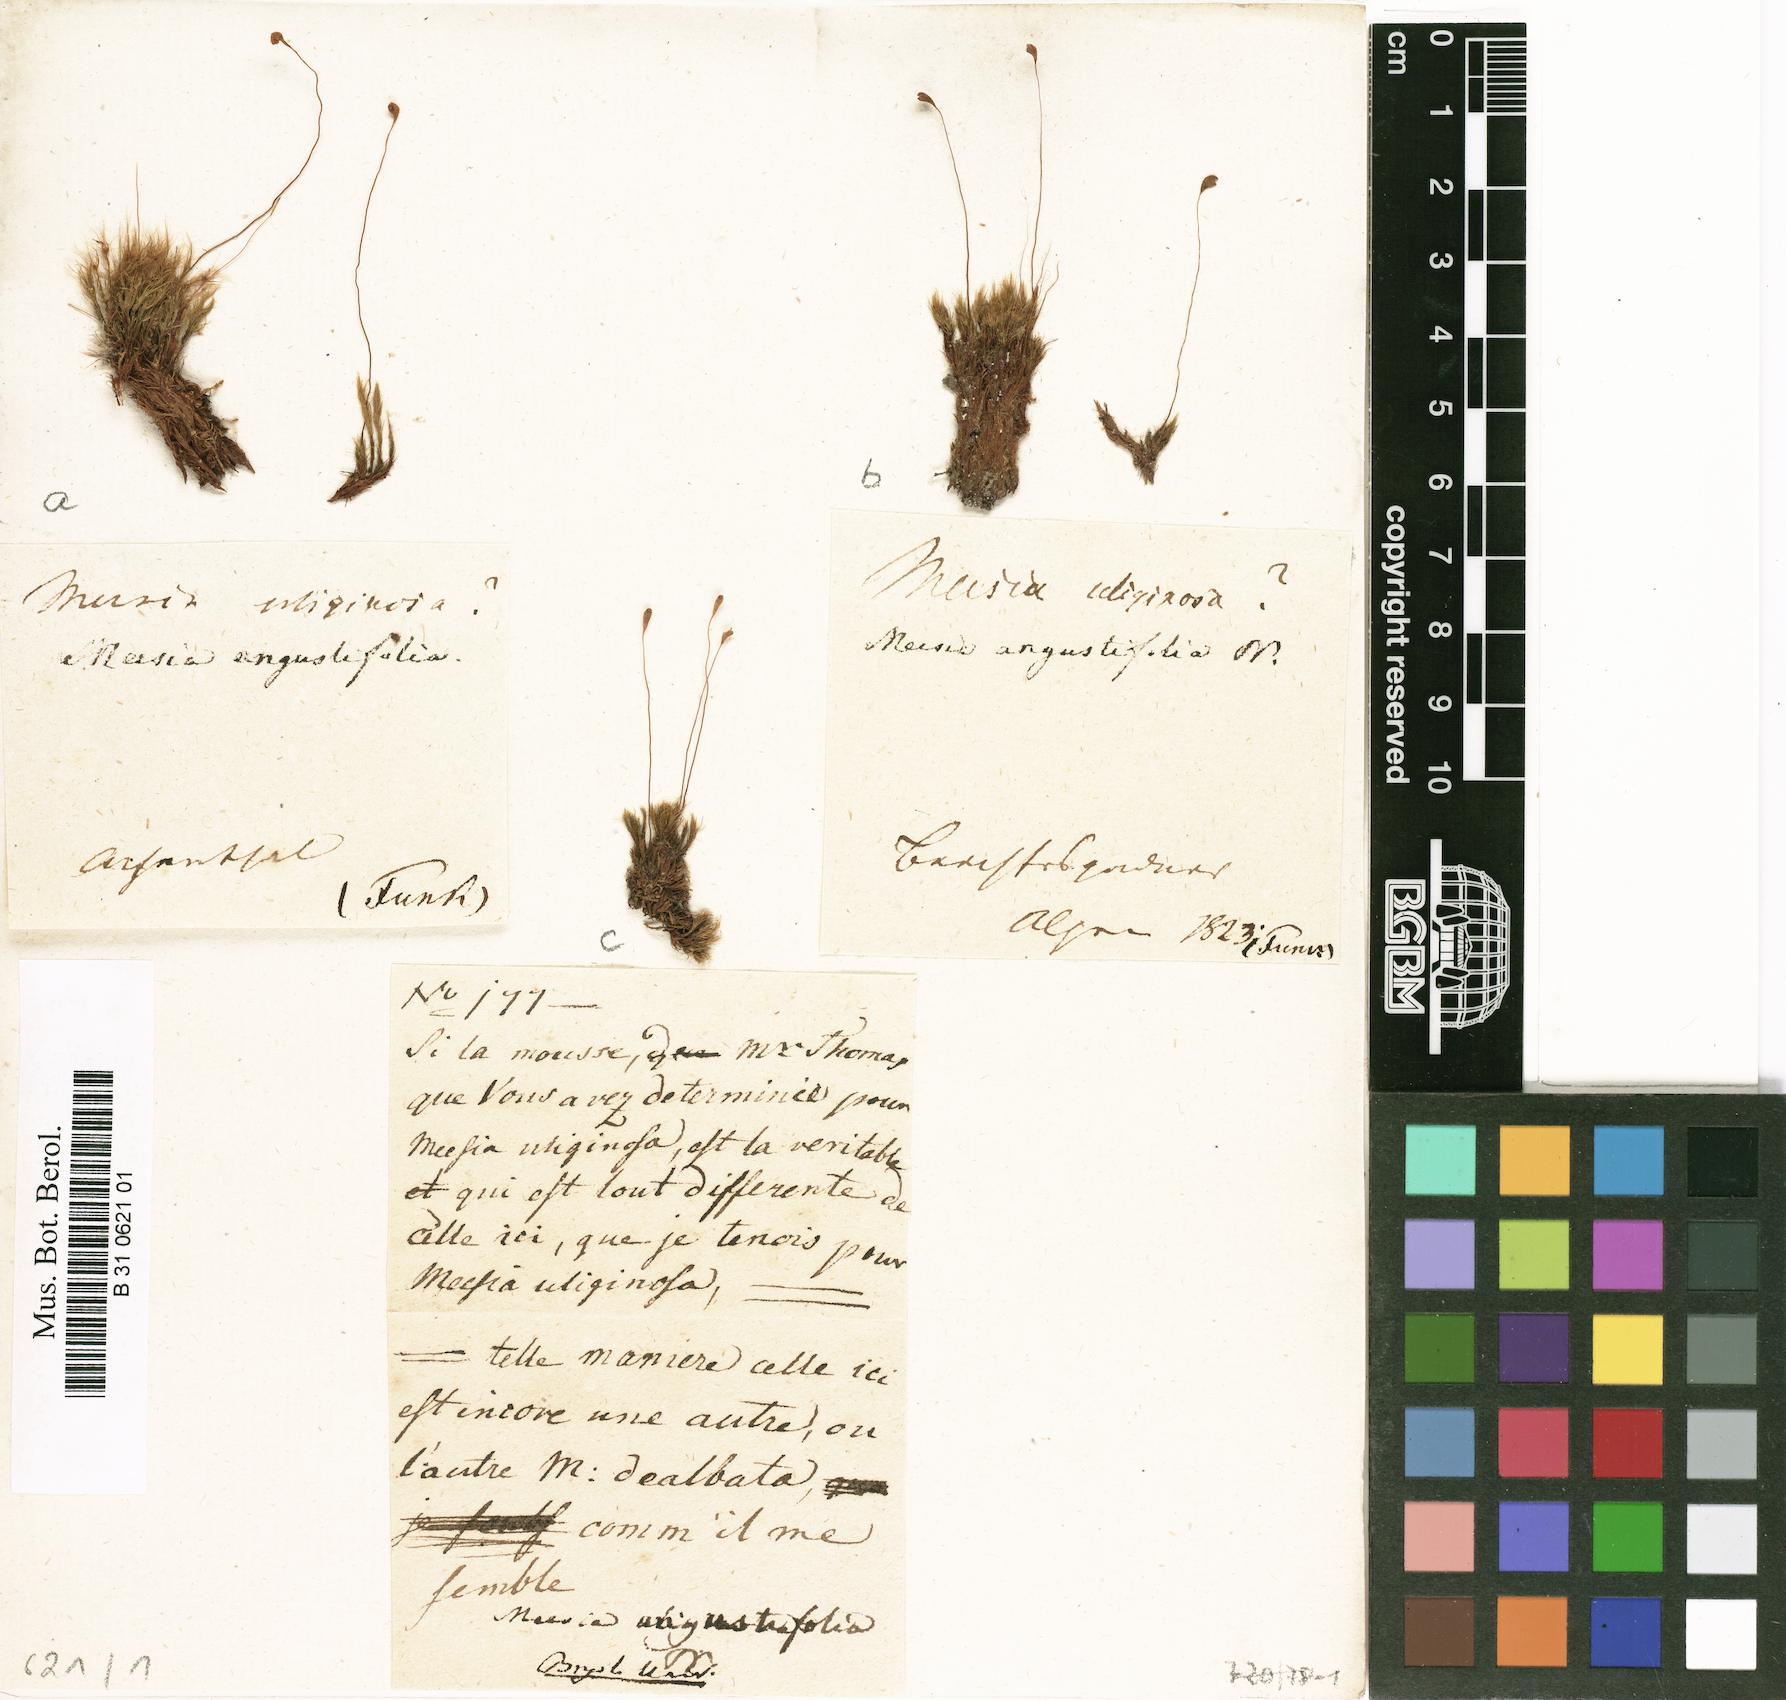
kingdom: Plantae
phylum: Bryophyta
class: Bryopsida
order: Splachnales
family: Meesiaceae
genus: Meesia
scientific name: Meesia minor
